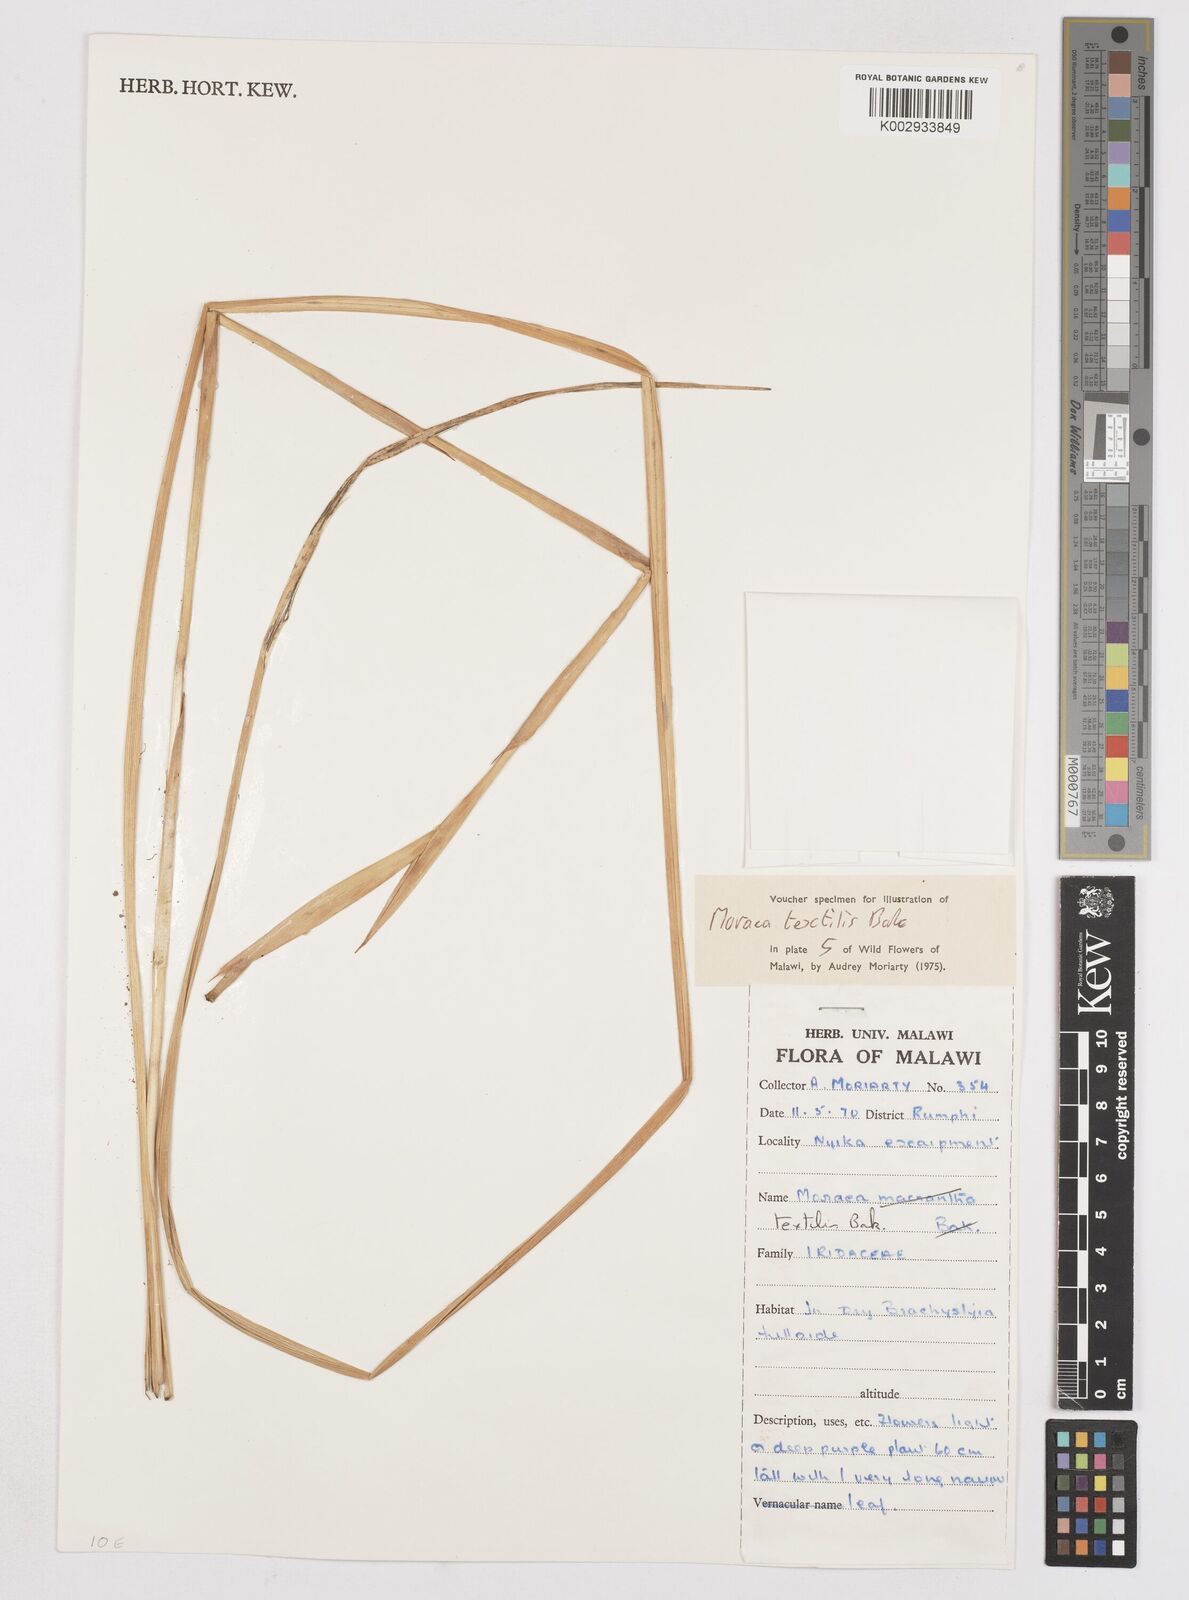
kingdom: Plantae
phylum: Tracheophyta
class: Liliopsida
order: Asparagales
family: Iridaceae
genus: Moraea
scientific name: Moraea textilis
